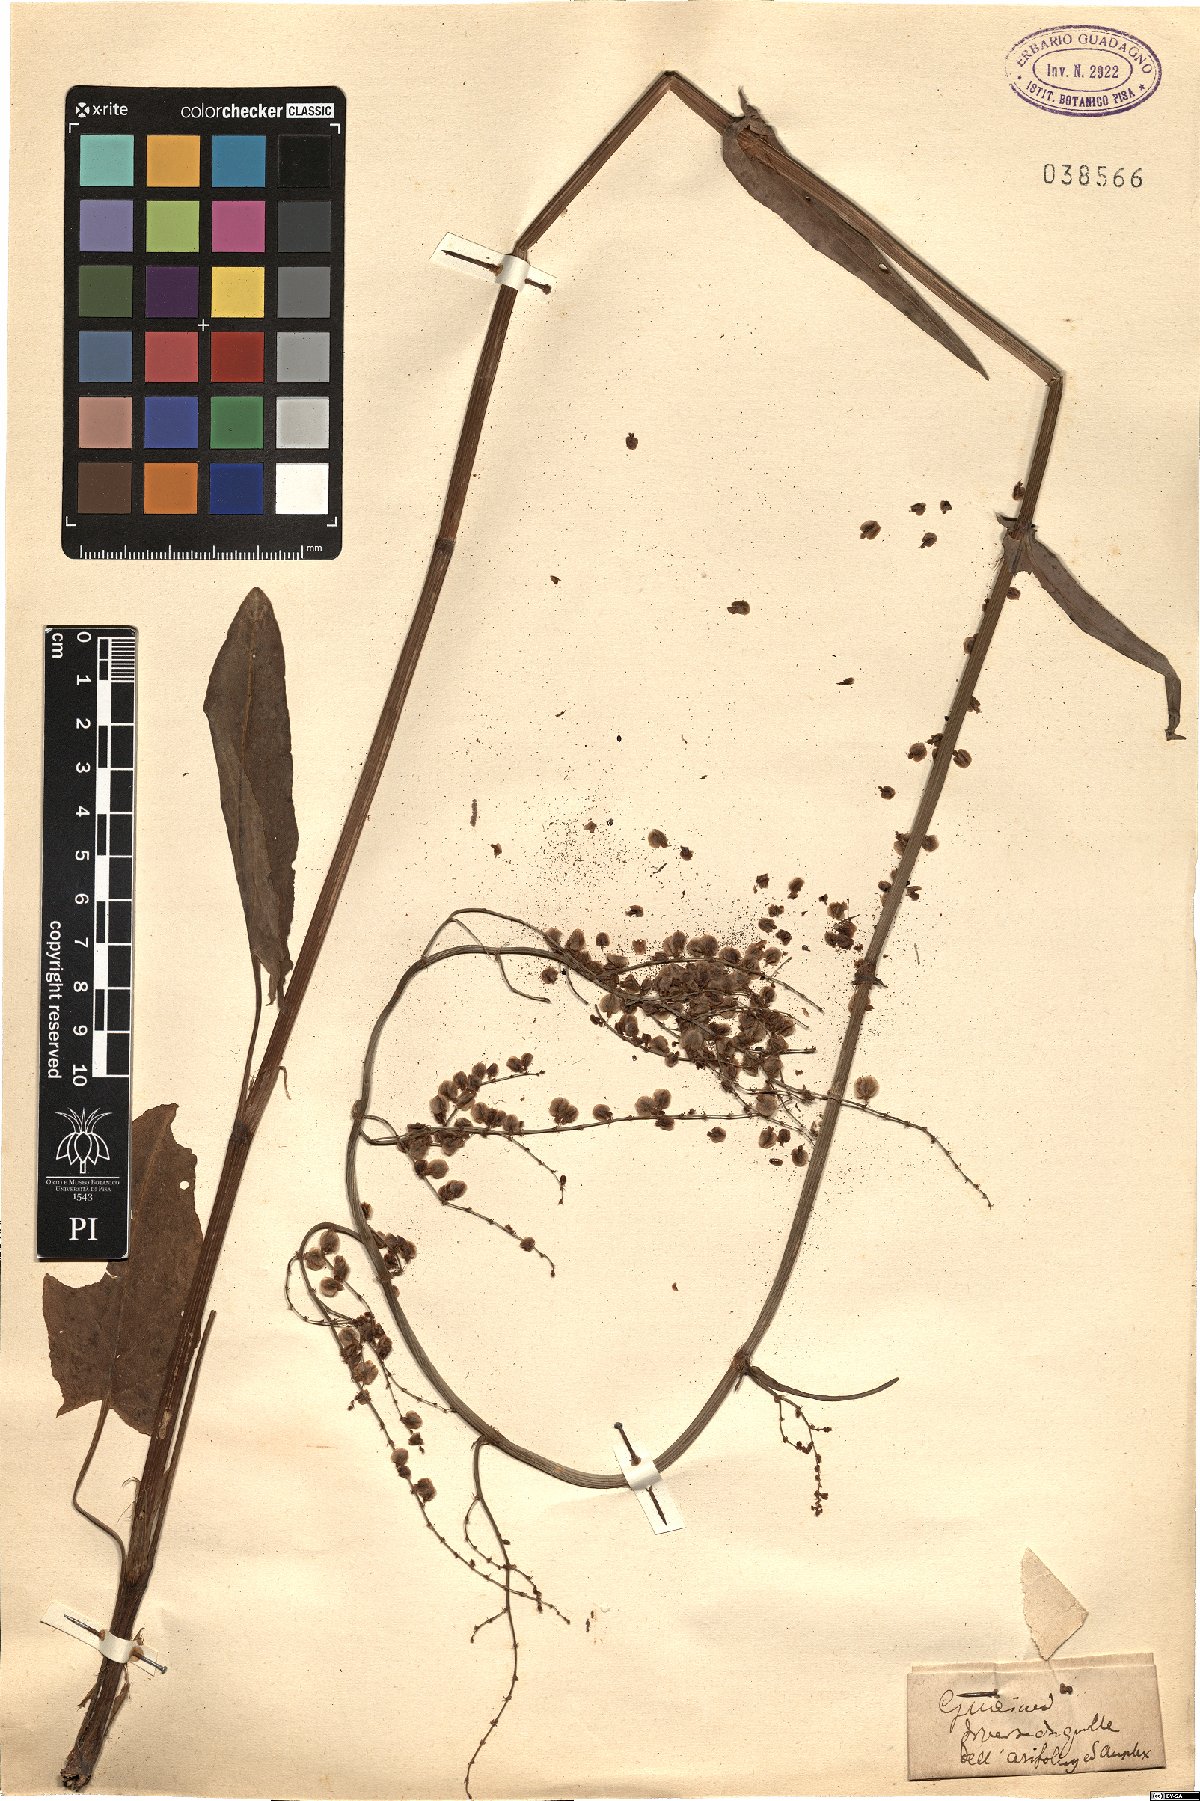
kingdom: Plantae
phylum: Tracheophyta
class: Magnoliopsida
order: Caryophyllales
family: Polygonaceae
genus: Rumex
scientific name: Rumex
